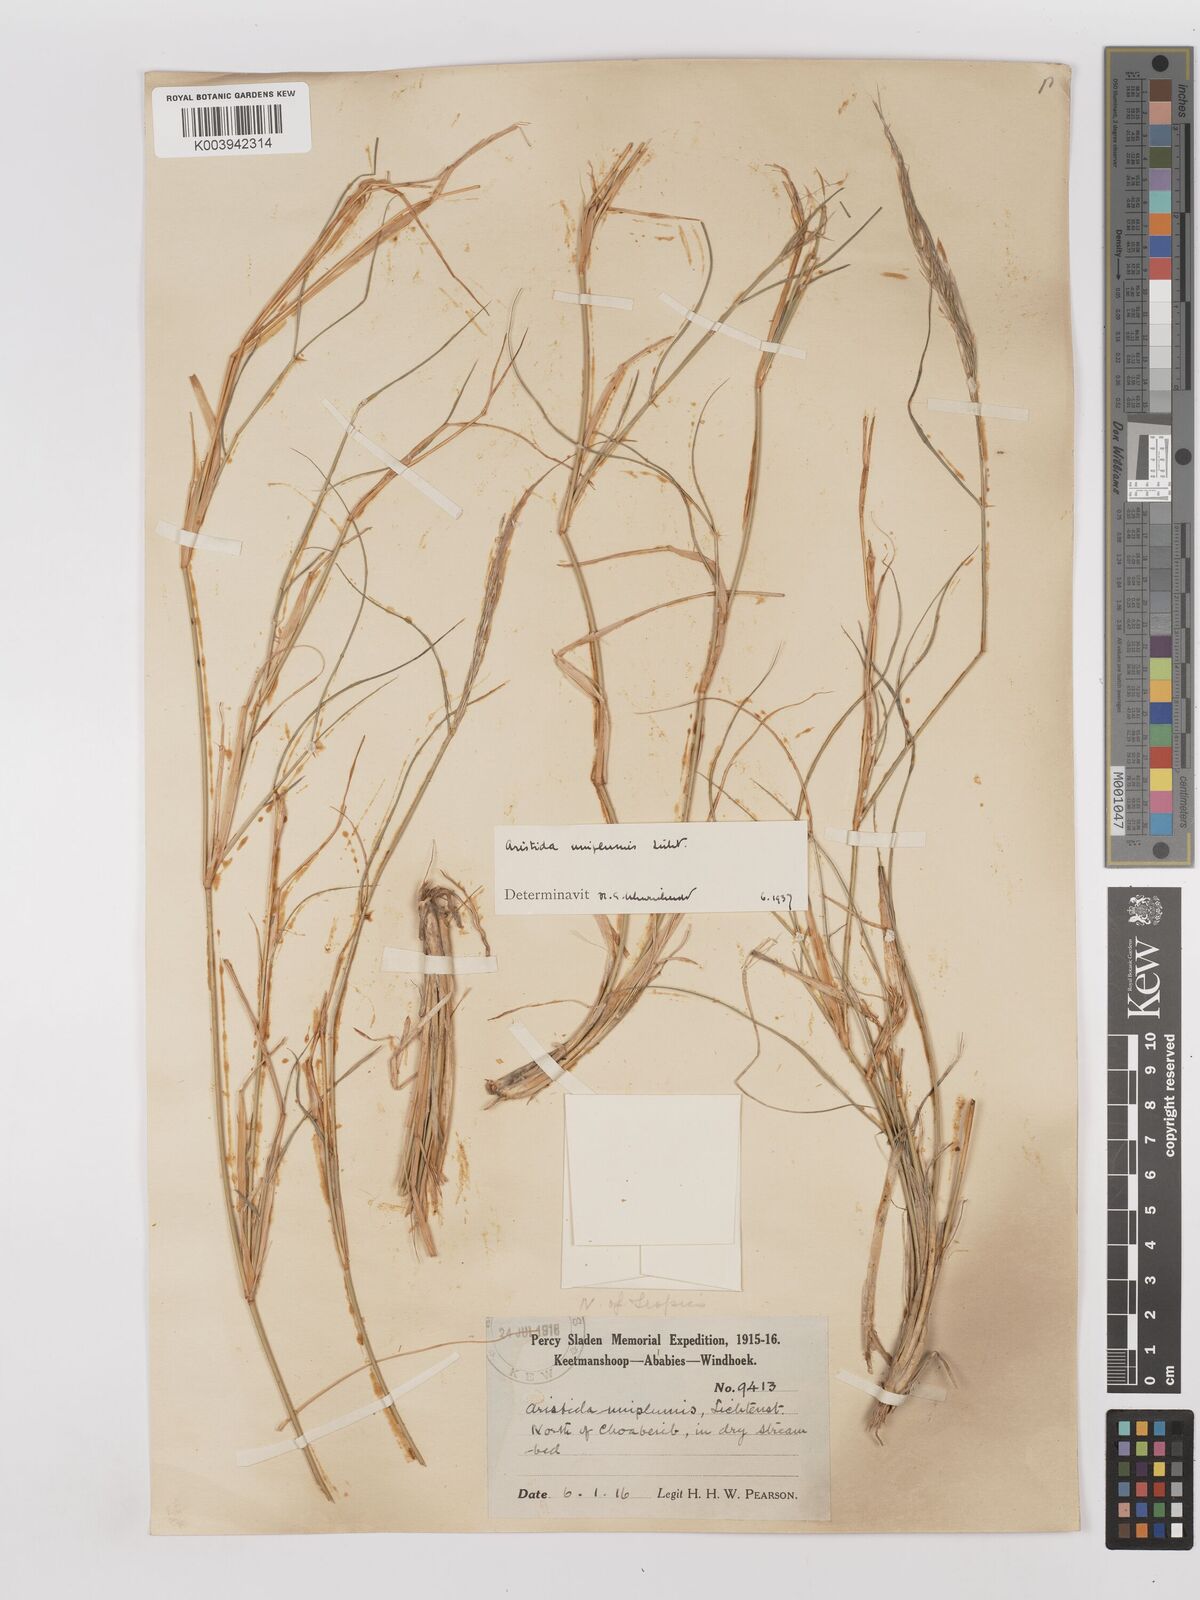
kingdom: Plantae
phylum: Tracheophyta
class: Liliopsida
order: Poales
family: Poaceae
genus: Stipagrostis
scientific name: Stipagrostis uniplumis
